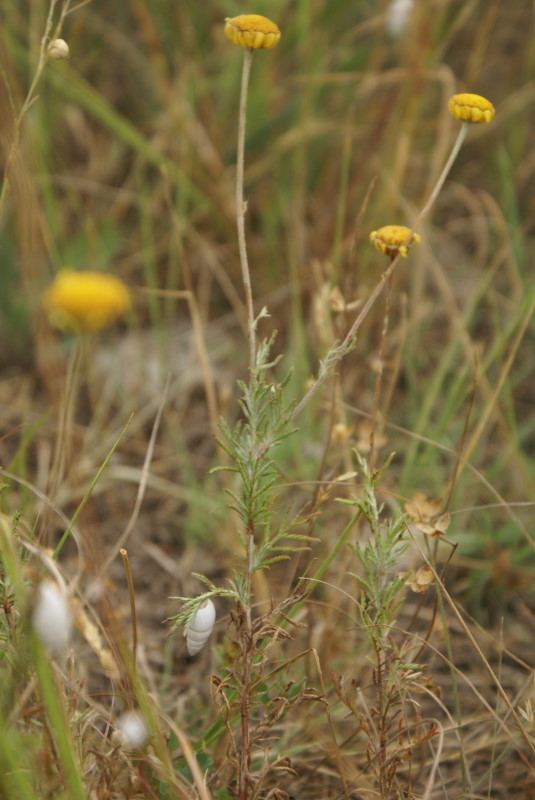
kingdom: Plantae
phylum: Tracheophyta
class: Magnoliopsida
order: Asterales
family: Asteraceae
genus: Cota
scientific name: Cota tinctoria
